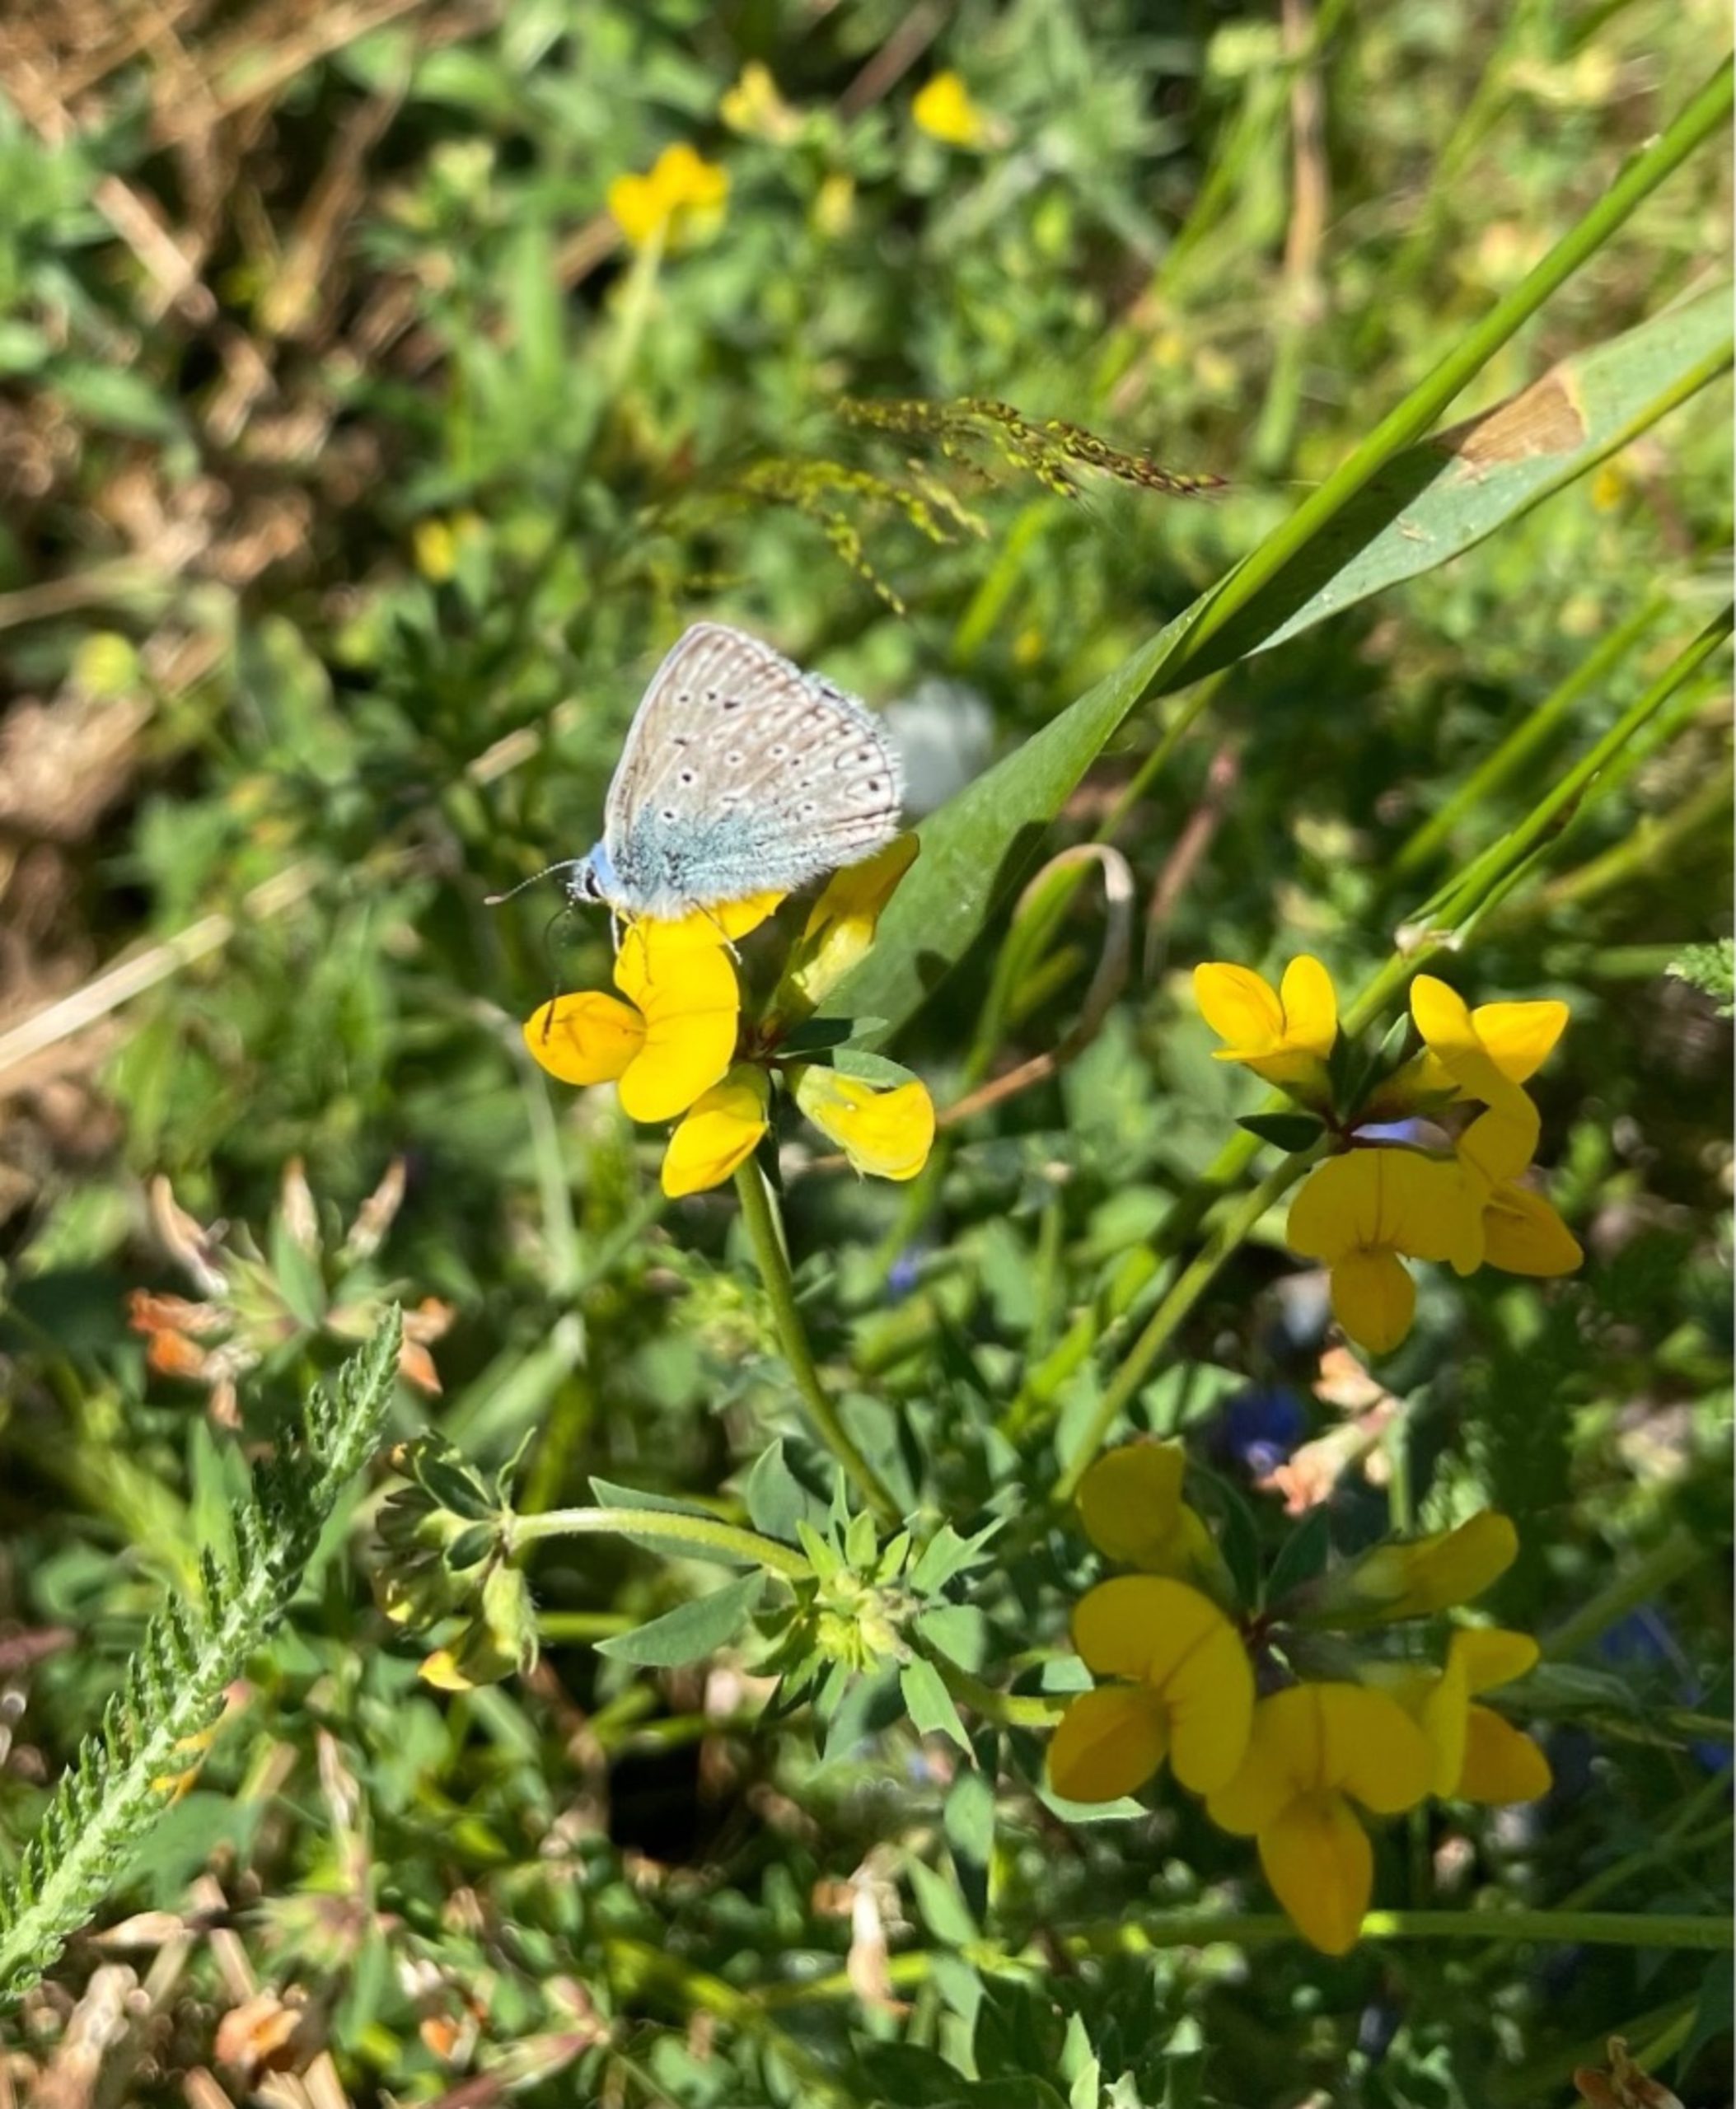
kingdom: Animalia
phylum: Arthropoda
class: Insecta
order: Lepidoptera
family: Lycaenidae
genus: Polyommatus
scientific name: Polyommatus icarus
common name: Almindelig blåfugl
